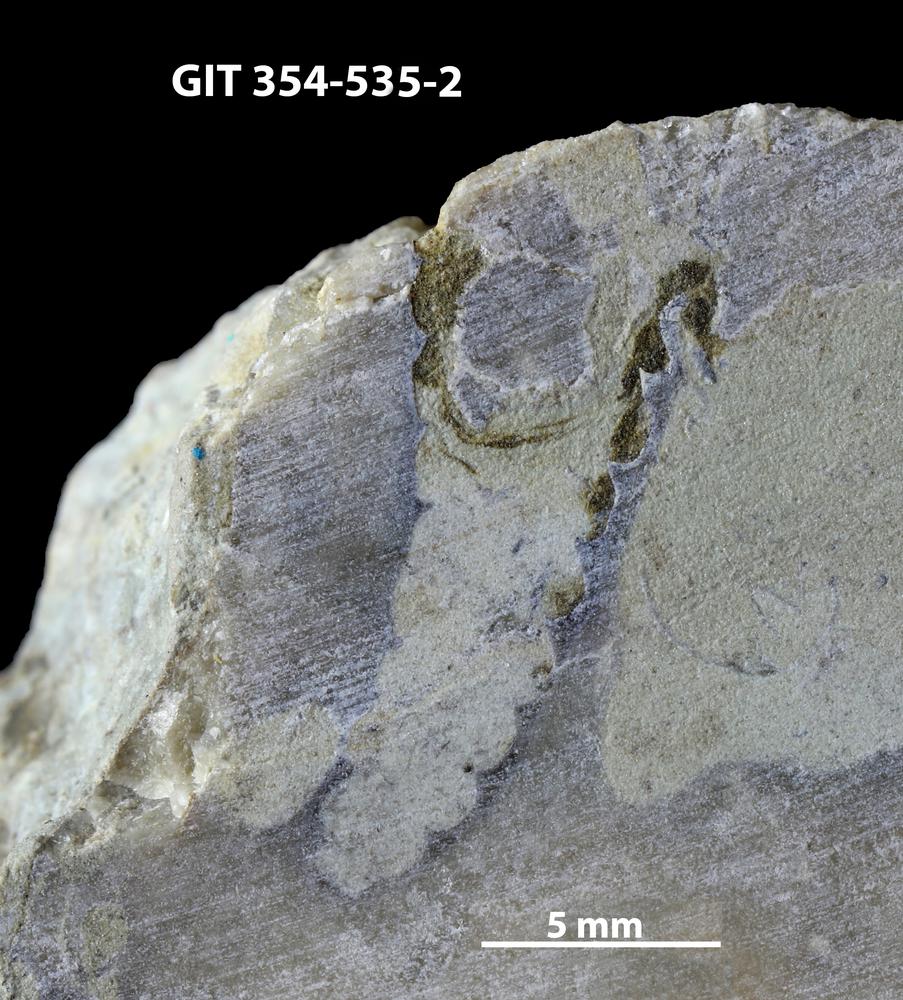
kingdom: Animalia
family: Cornulitidae
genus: Cornulites
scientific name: Cornulites
